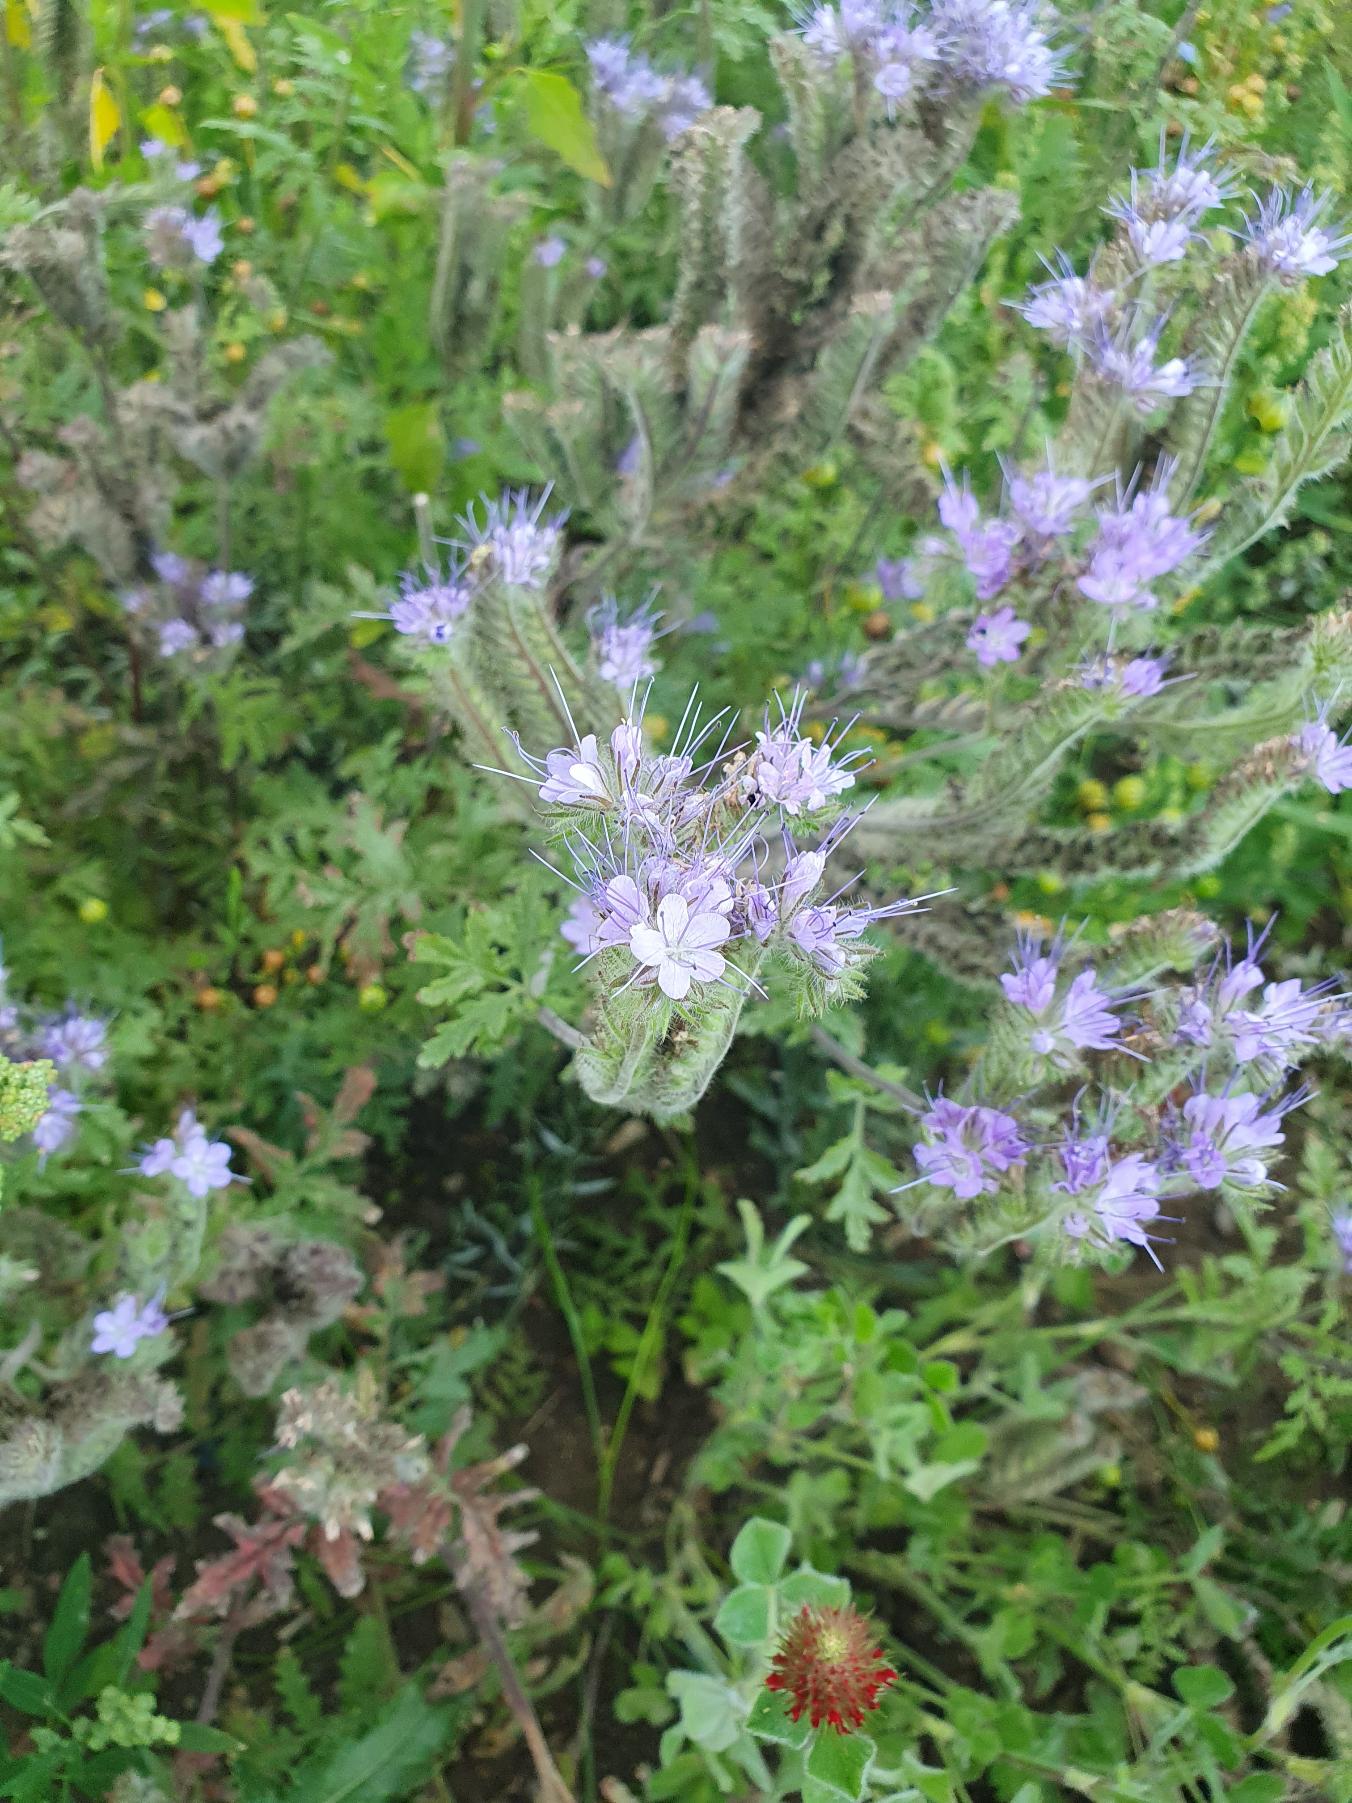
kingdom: Plantae
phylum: Tracheophyta
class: Magnoliopsida
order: Boraginales
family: Hydrophyllaceae
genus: Phacelia
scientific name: Phacelia tanacetifolia
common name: Honningurt
